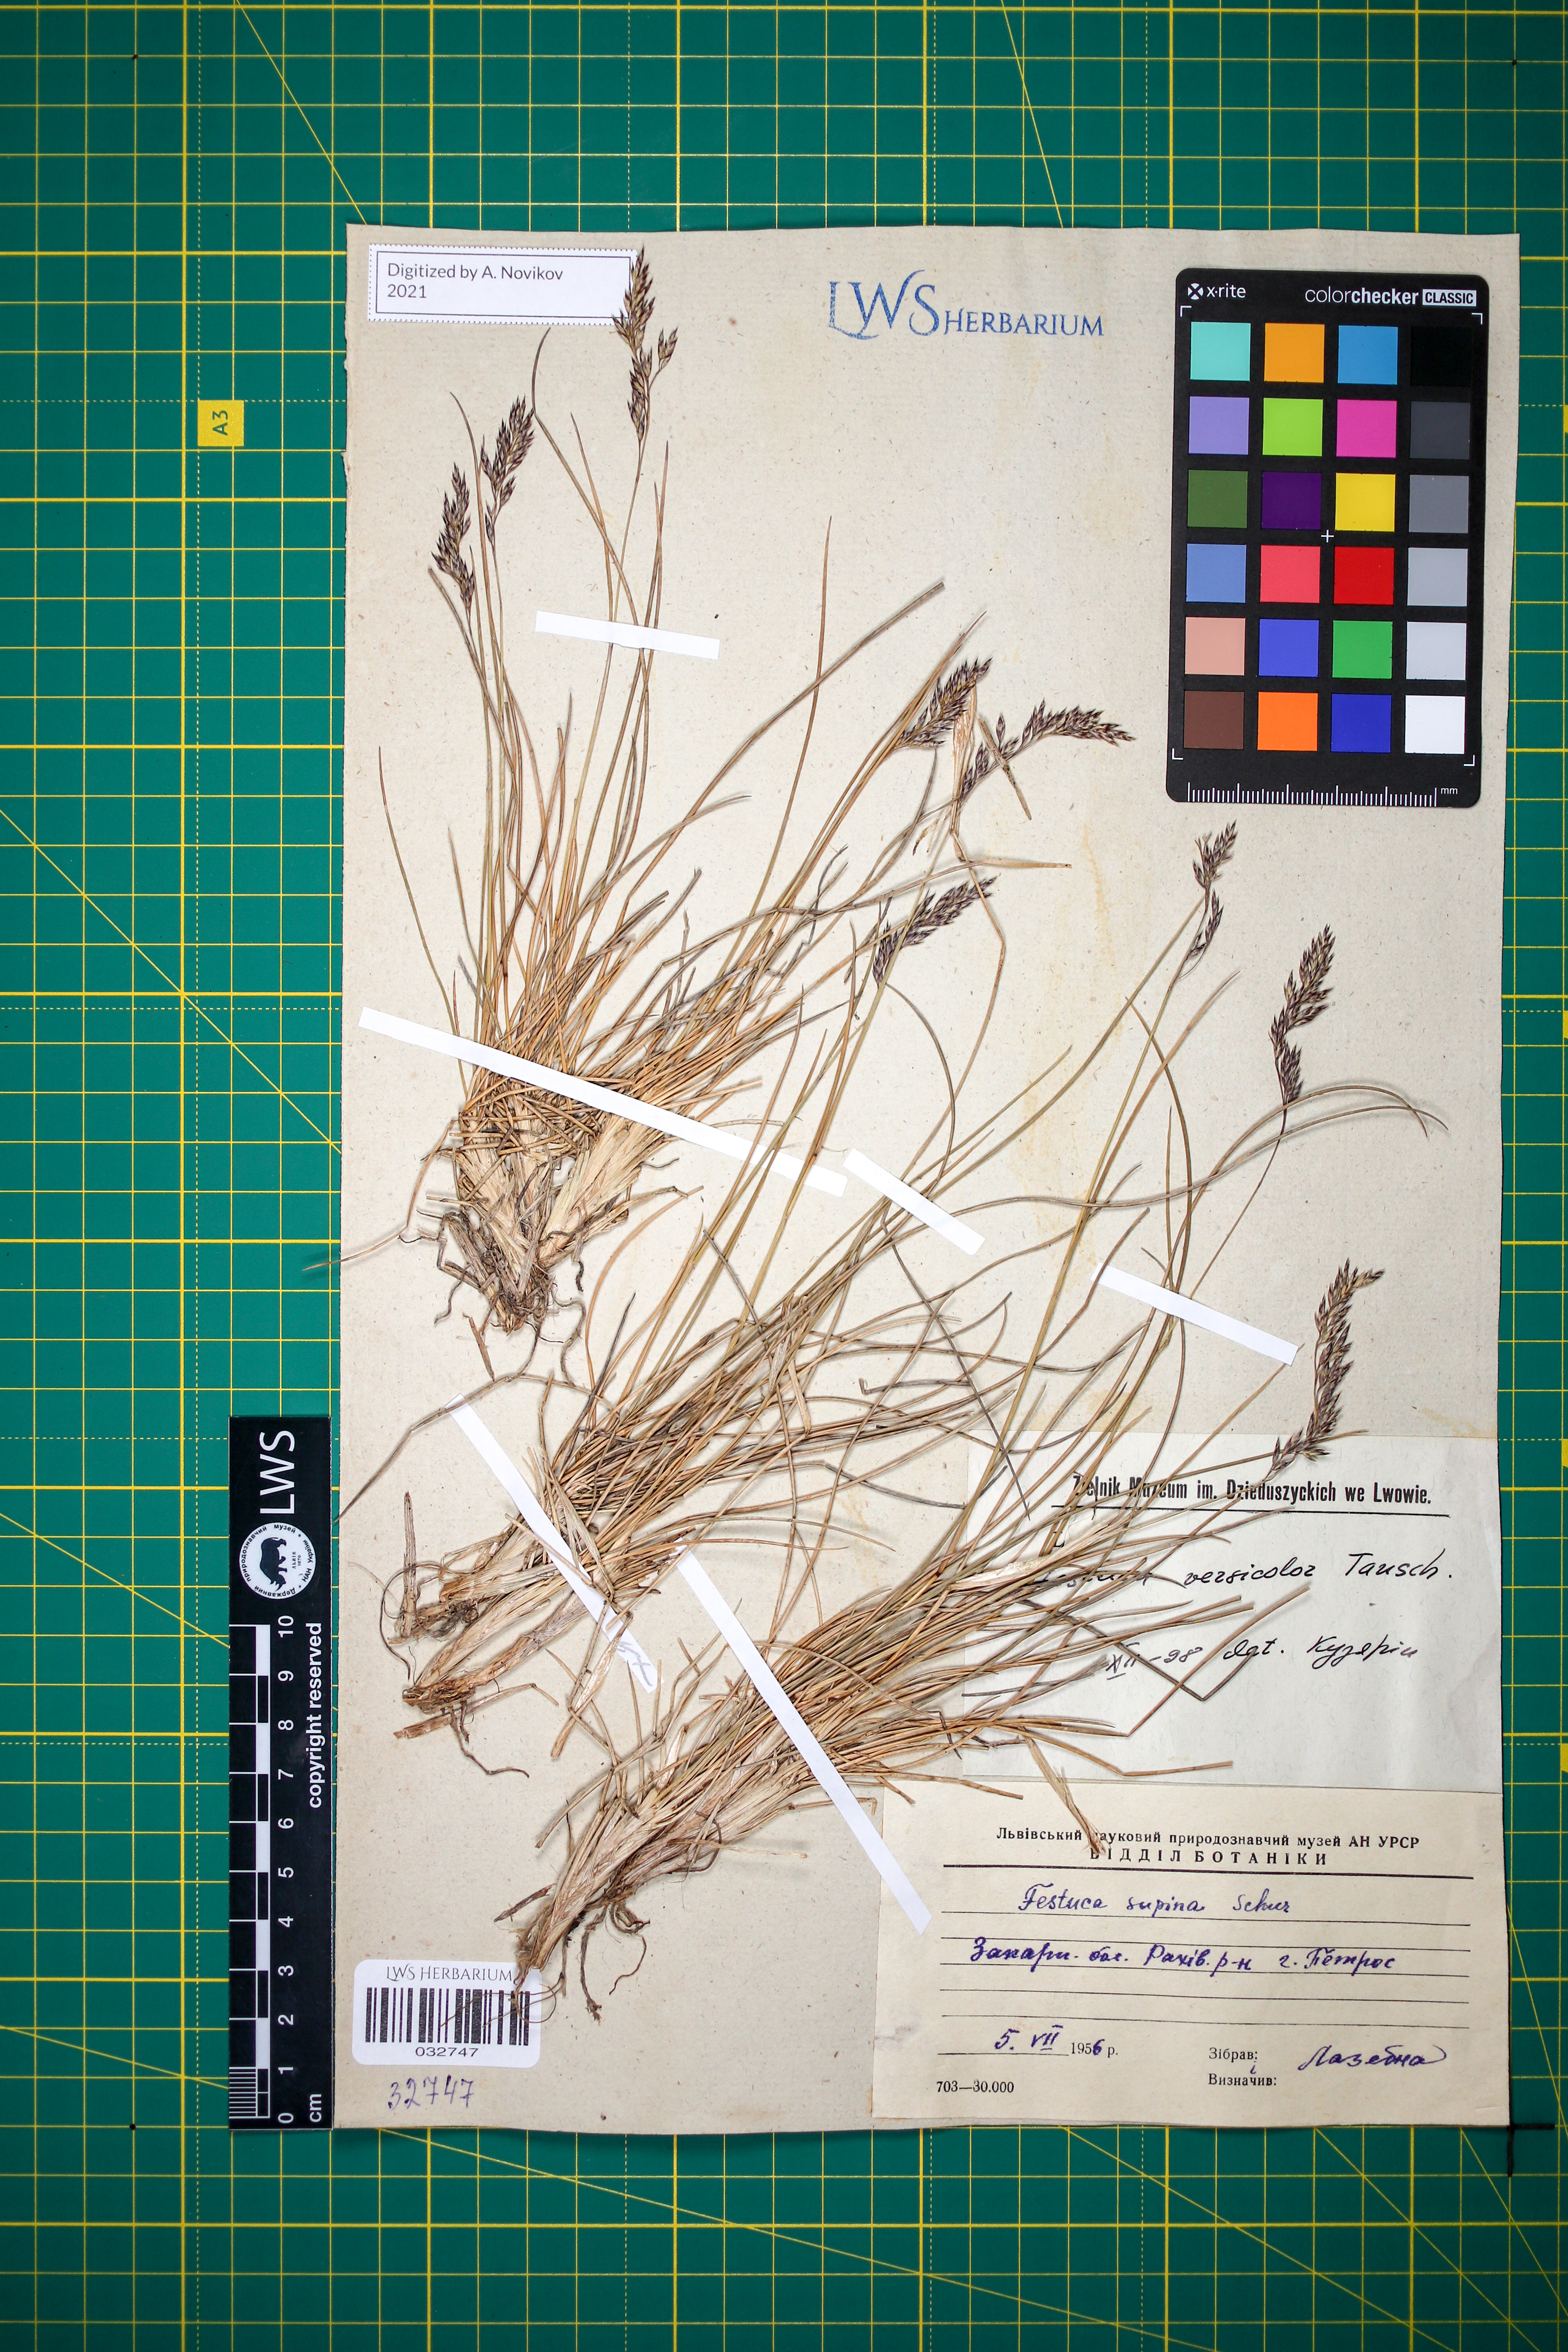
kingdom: Plantae
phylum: Tracheophyta
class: Liliopsida
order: Poales
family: Poaceae
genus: Festuca
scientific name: Festuca versicolor
